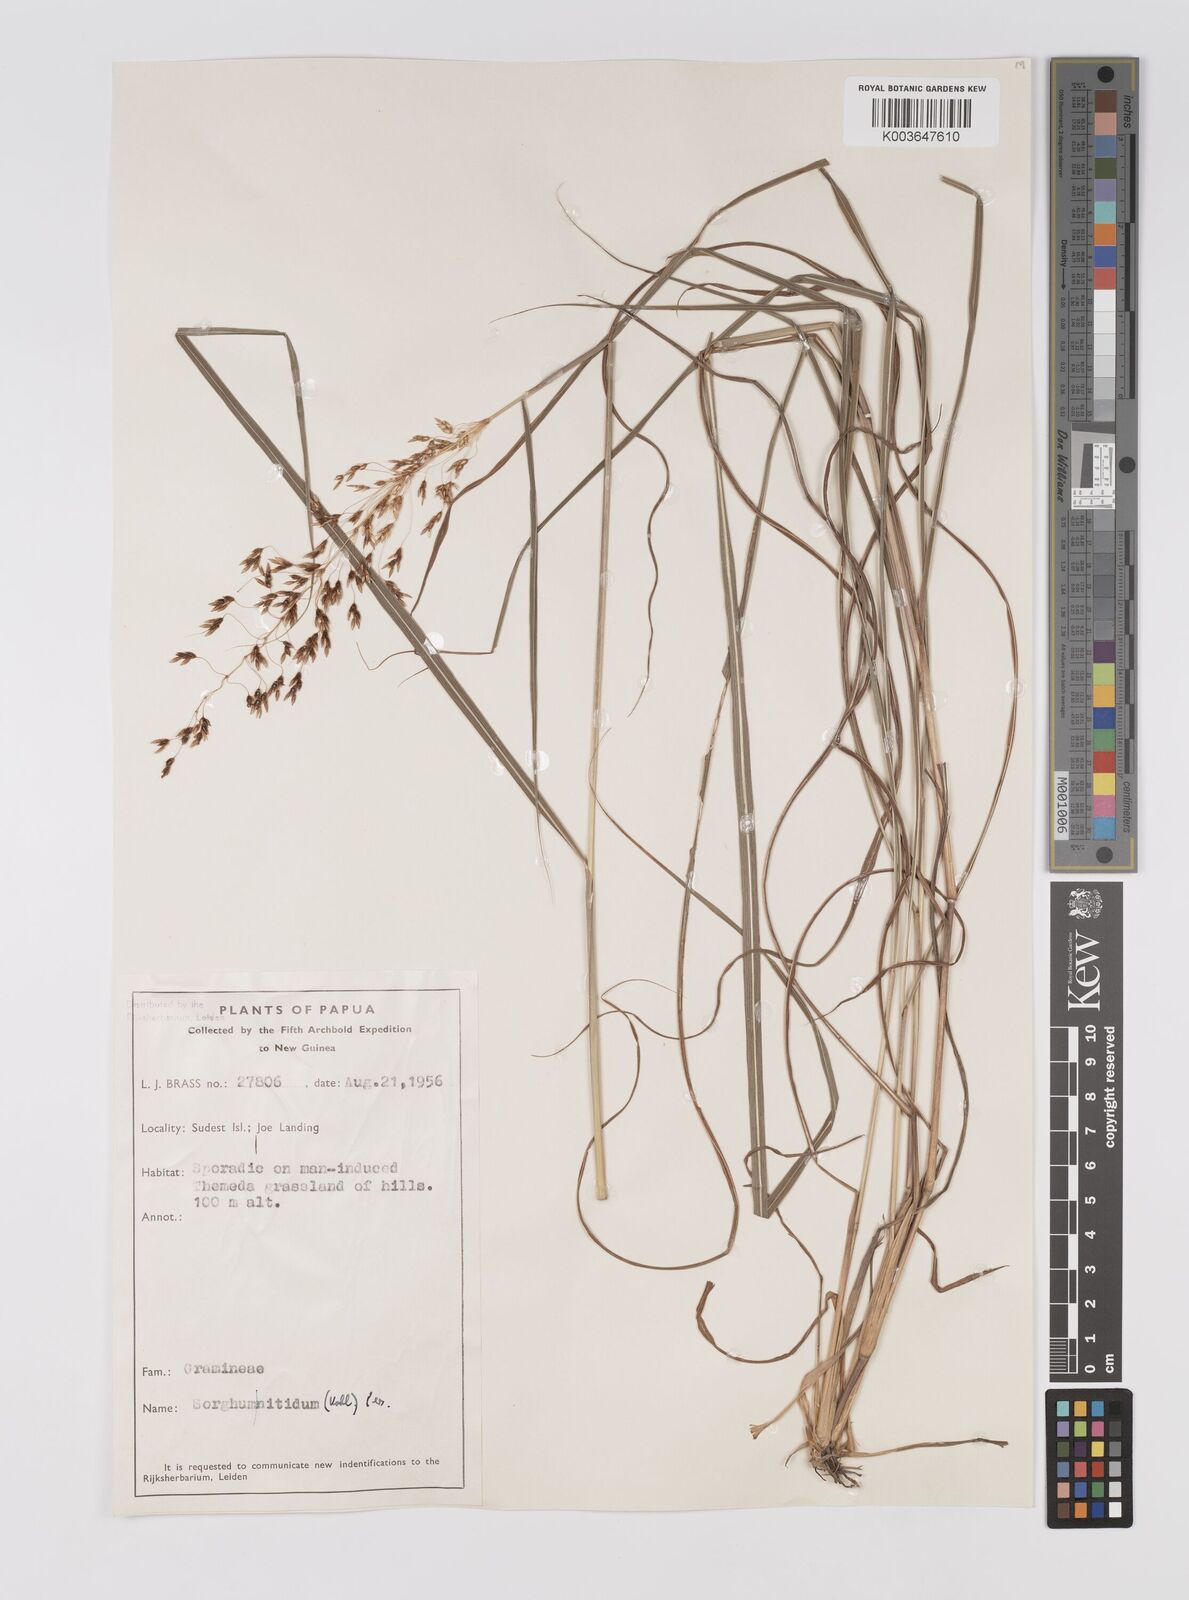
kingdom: Plantae
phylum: Tracheophyta
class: Liliopsida
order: Poales
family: Poaceae
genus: Sorghum
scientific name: Sorghum nitidum
